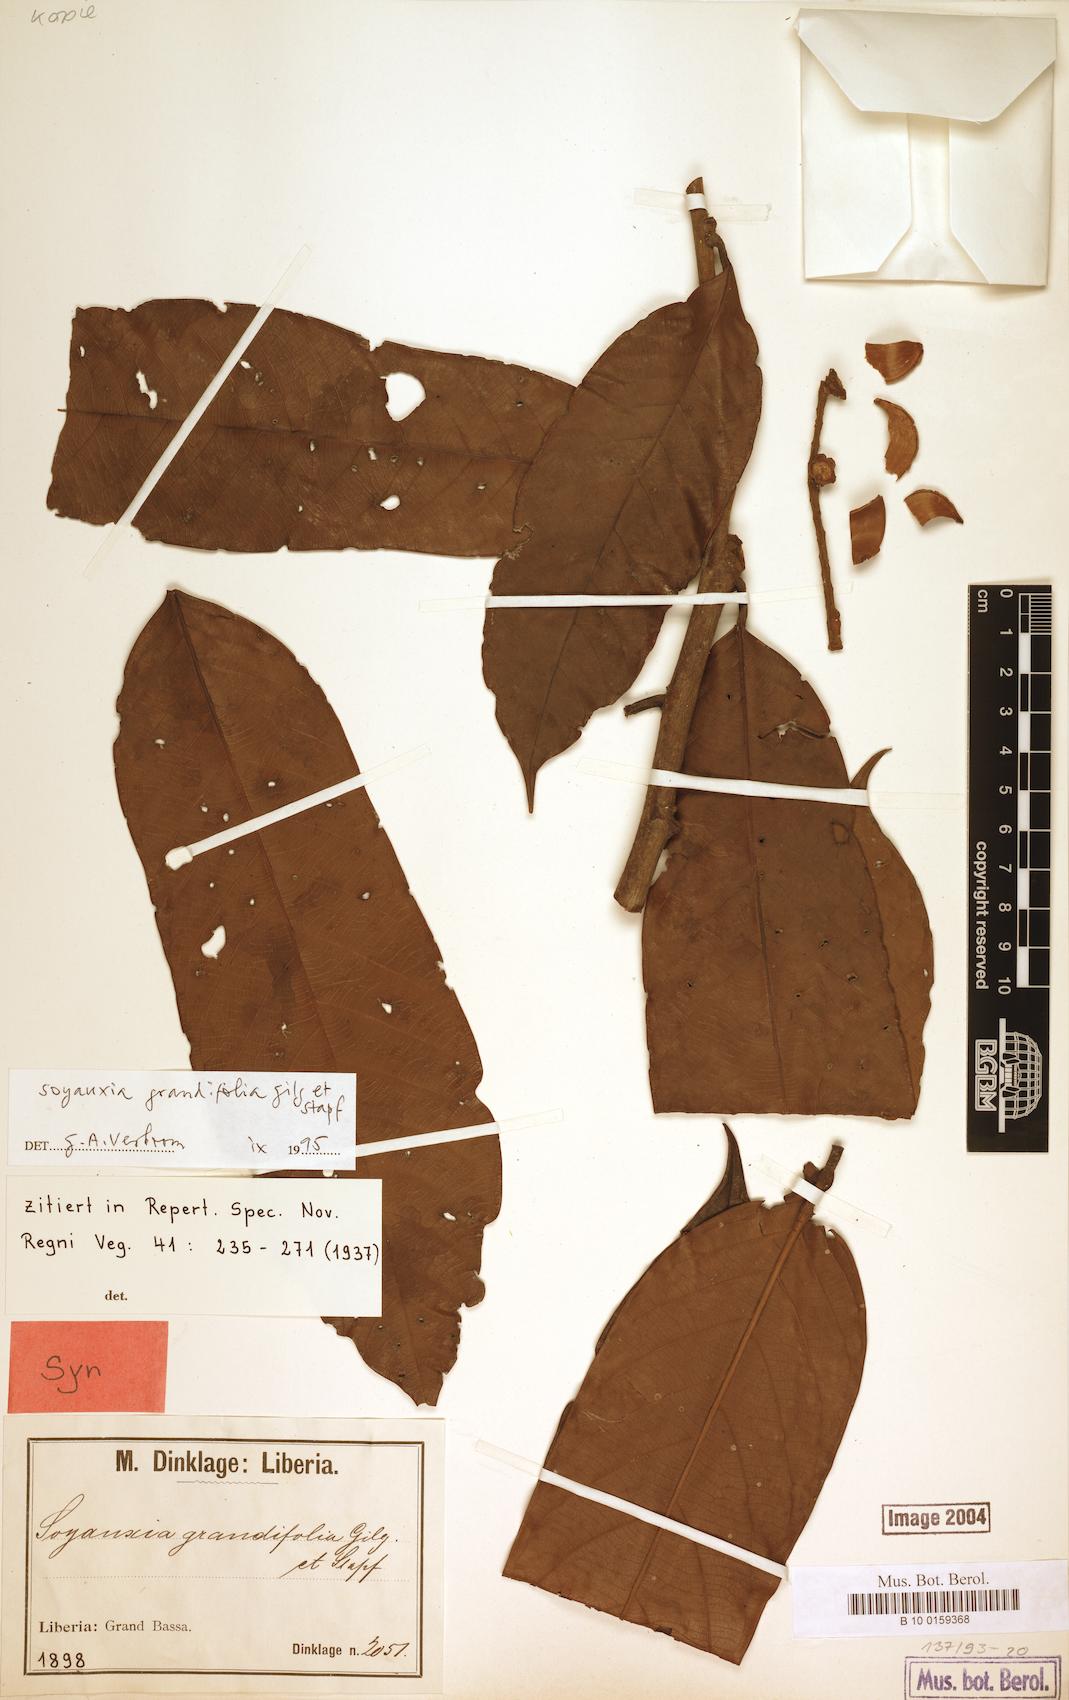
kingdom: Plantae
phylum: Tracheophyta
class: Magnoliopsida
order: Saxifragales
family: Peridiscaceae
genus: Soyauxia
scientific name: Soyauxia grandifolia
